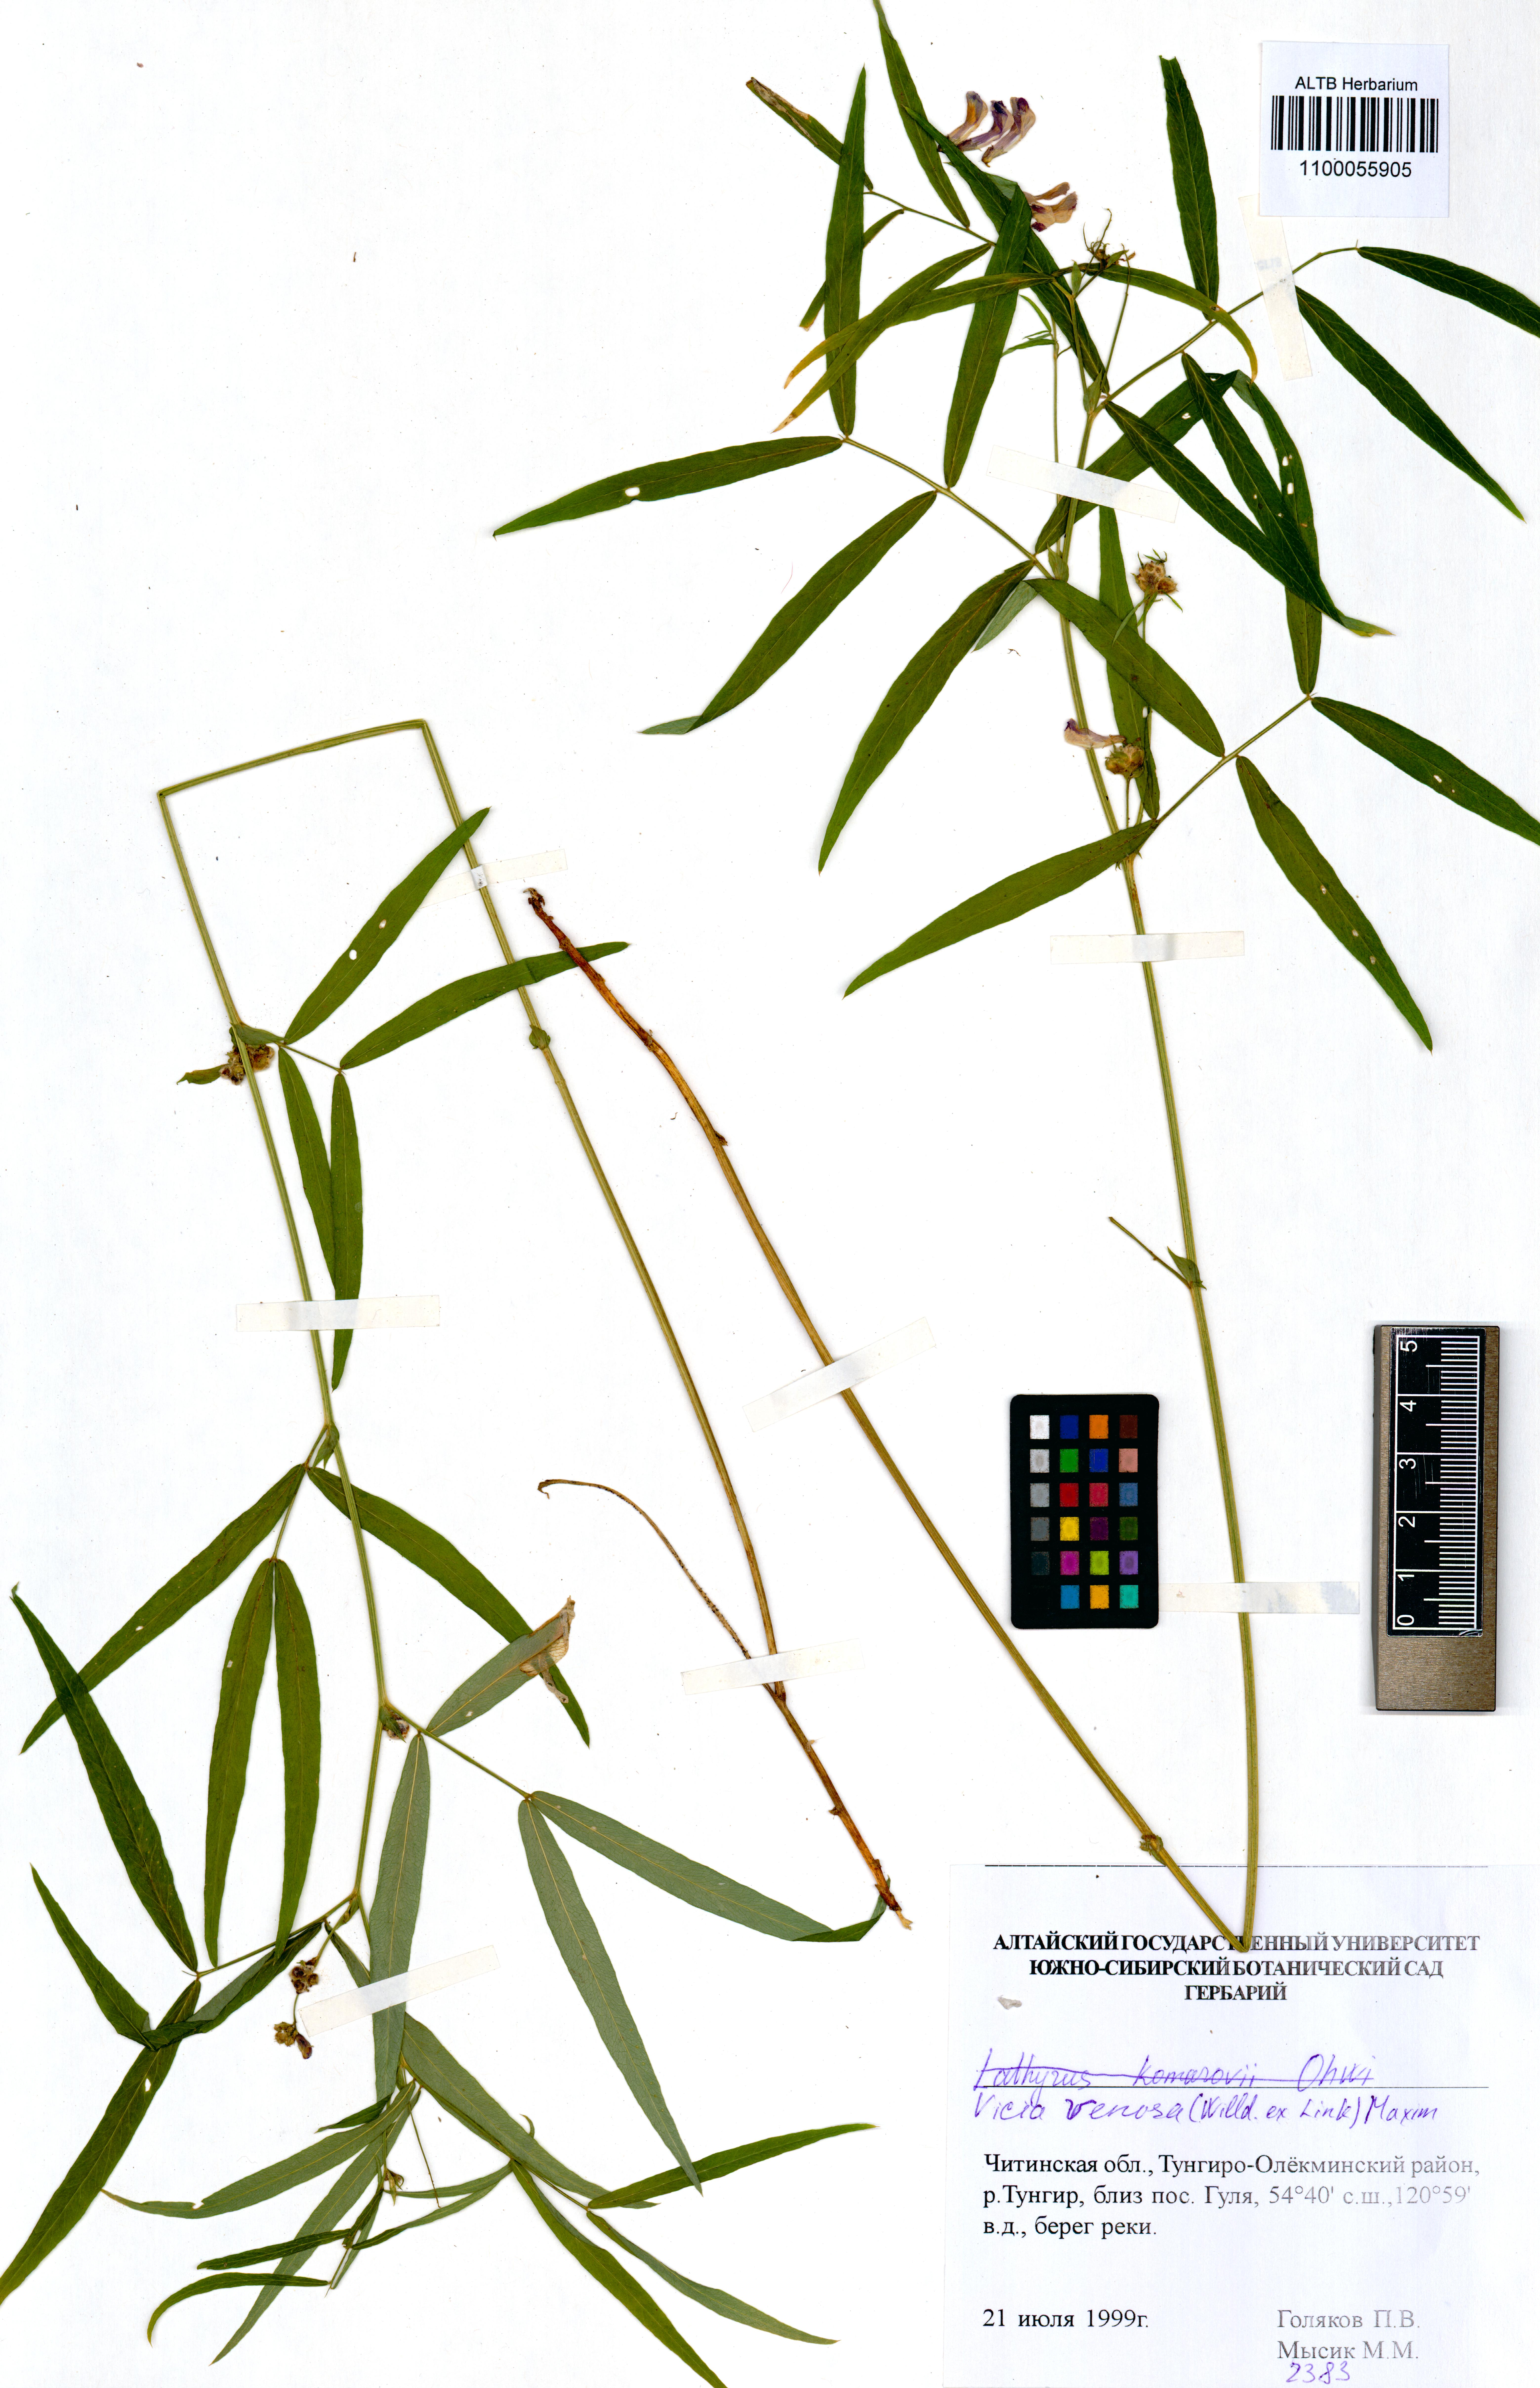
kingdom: Plantae
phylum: Tracheophyta
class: Magnoliopsida
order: Fabales
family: Fabaceae
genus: Vicia
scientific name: Vicia venosa
